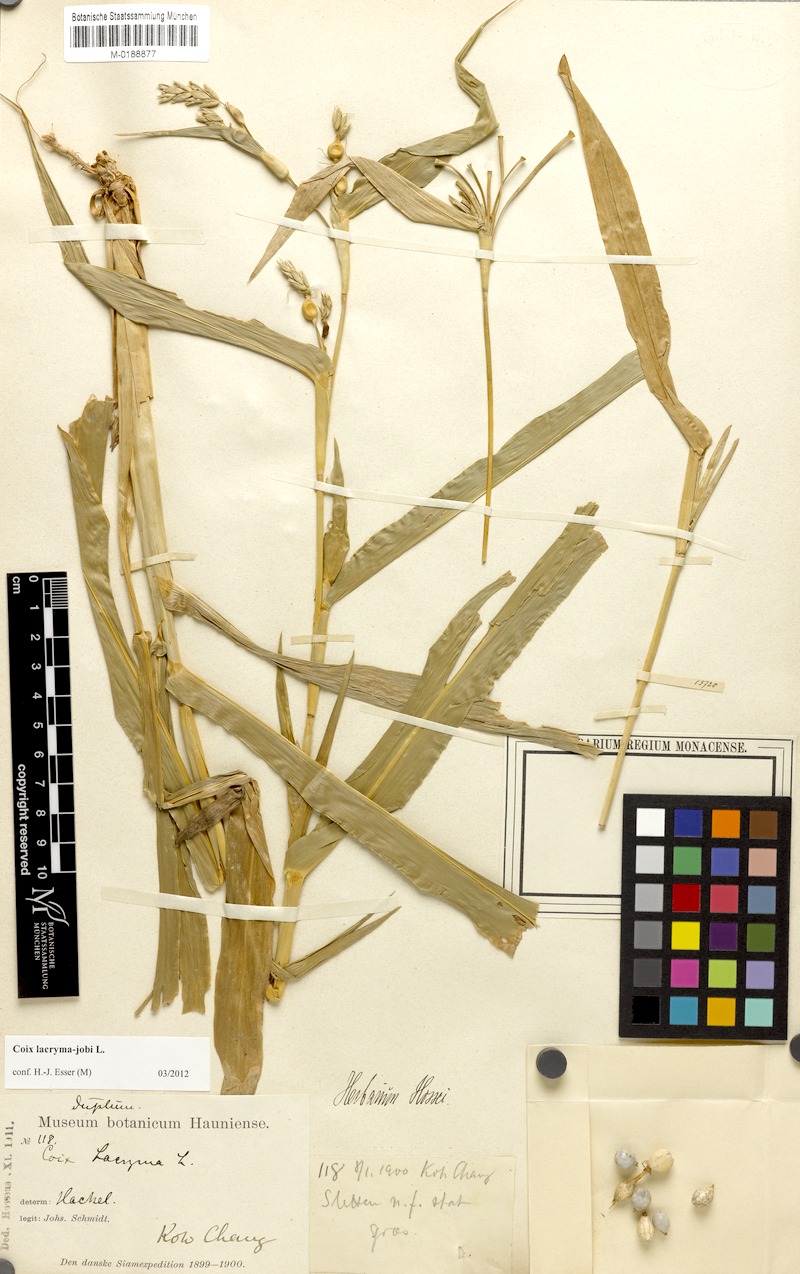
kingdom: Plantae
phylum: Tracheophyta
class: Liliopsida
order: Poales
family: Poaceae
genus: Coix
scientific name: Coix lacryma-jobi
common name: Job's tears
